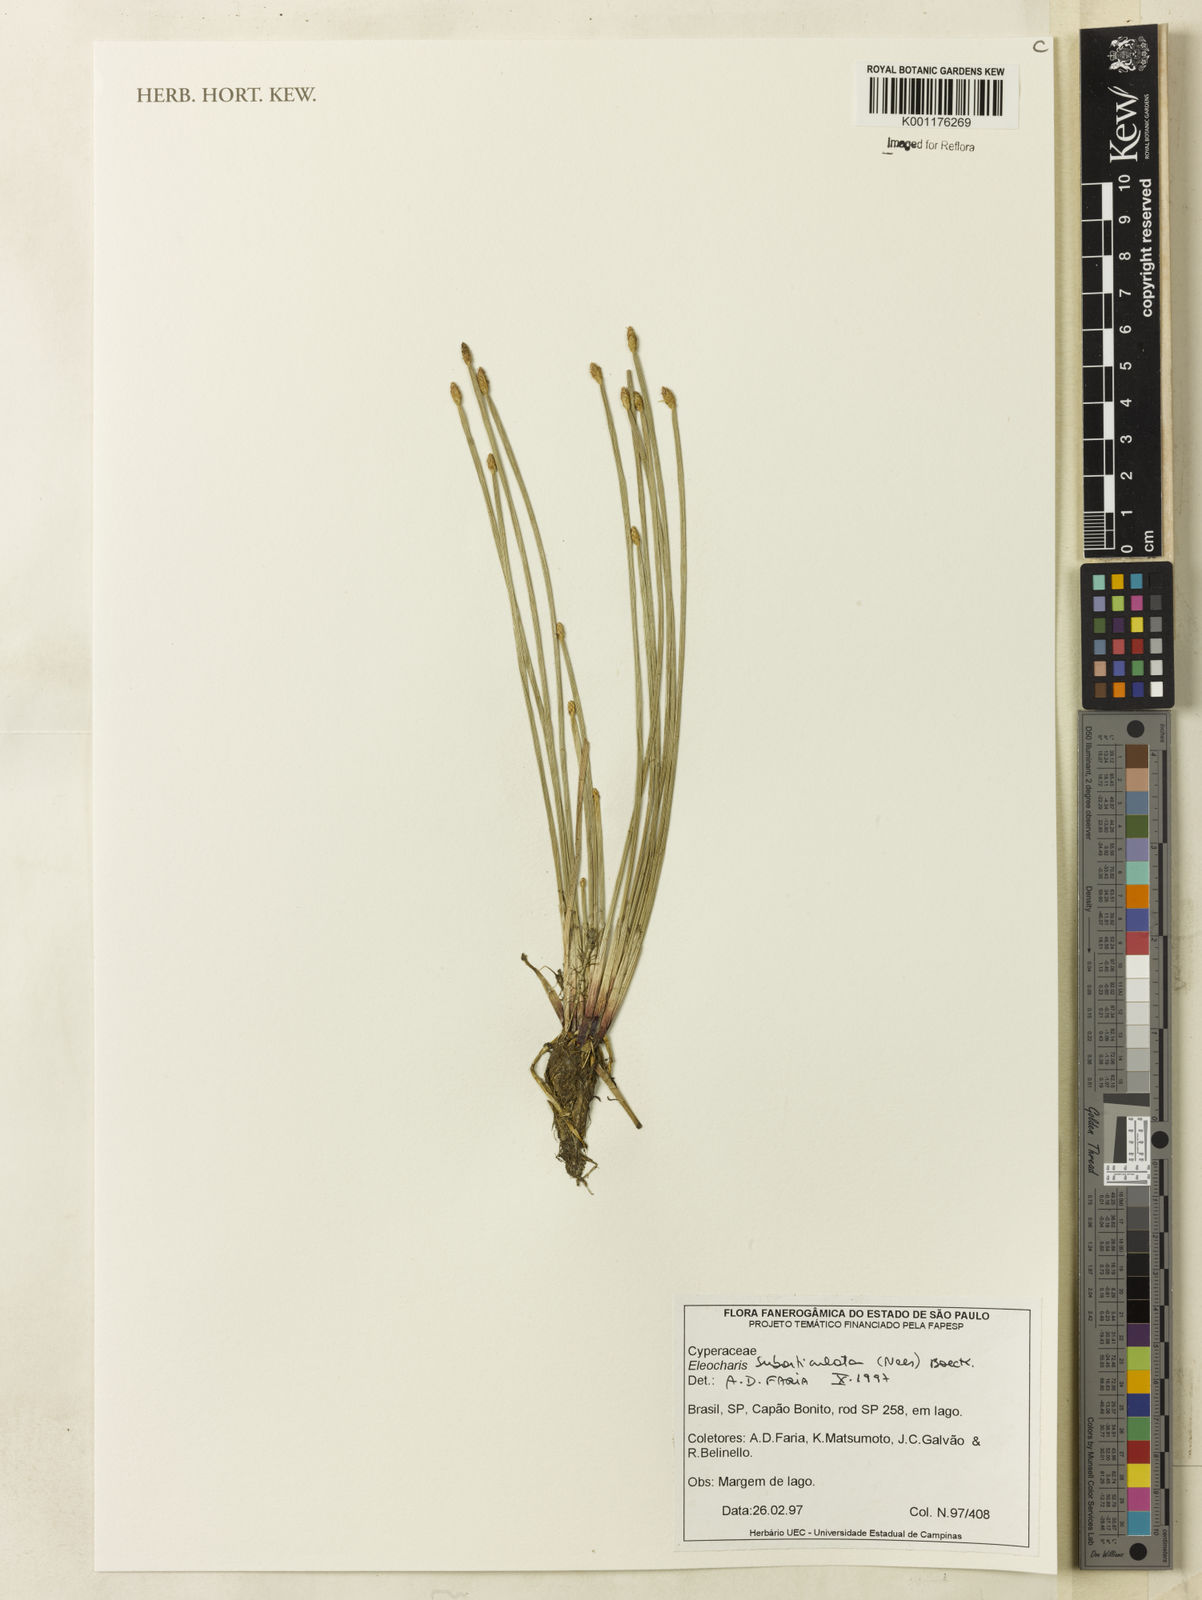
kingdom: Plantae
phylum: Tracheophyta
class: Liliopsida
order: Poales
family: Cyperaceae
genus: Eleocharis
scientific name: Eleocharis subarticulata
